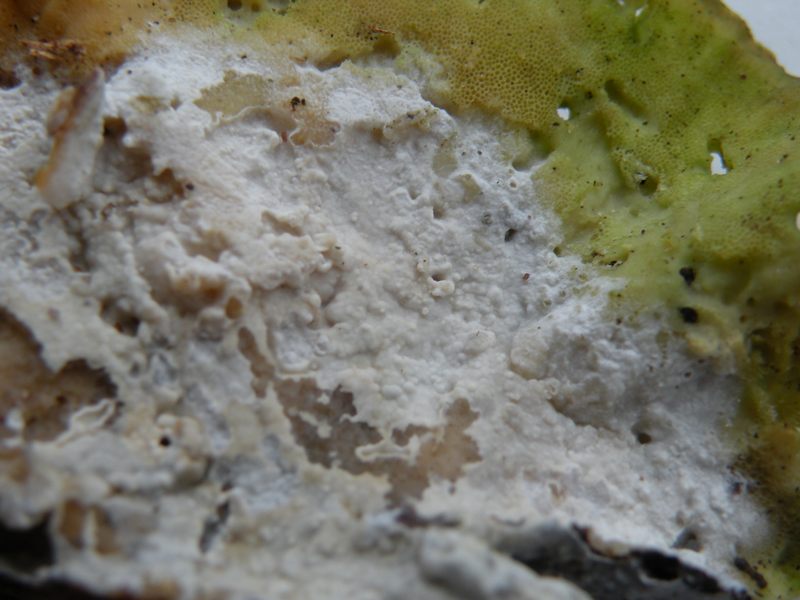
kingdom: Fungi
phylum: Basidiomycota
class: Agaricomycetes
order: Polyporales
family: Phanerochaetaceae
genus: Phanerochaete
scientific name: Phanerochaete sordida
